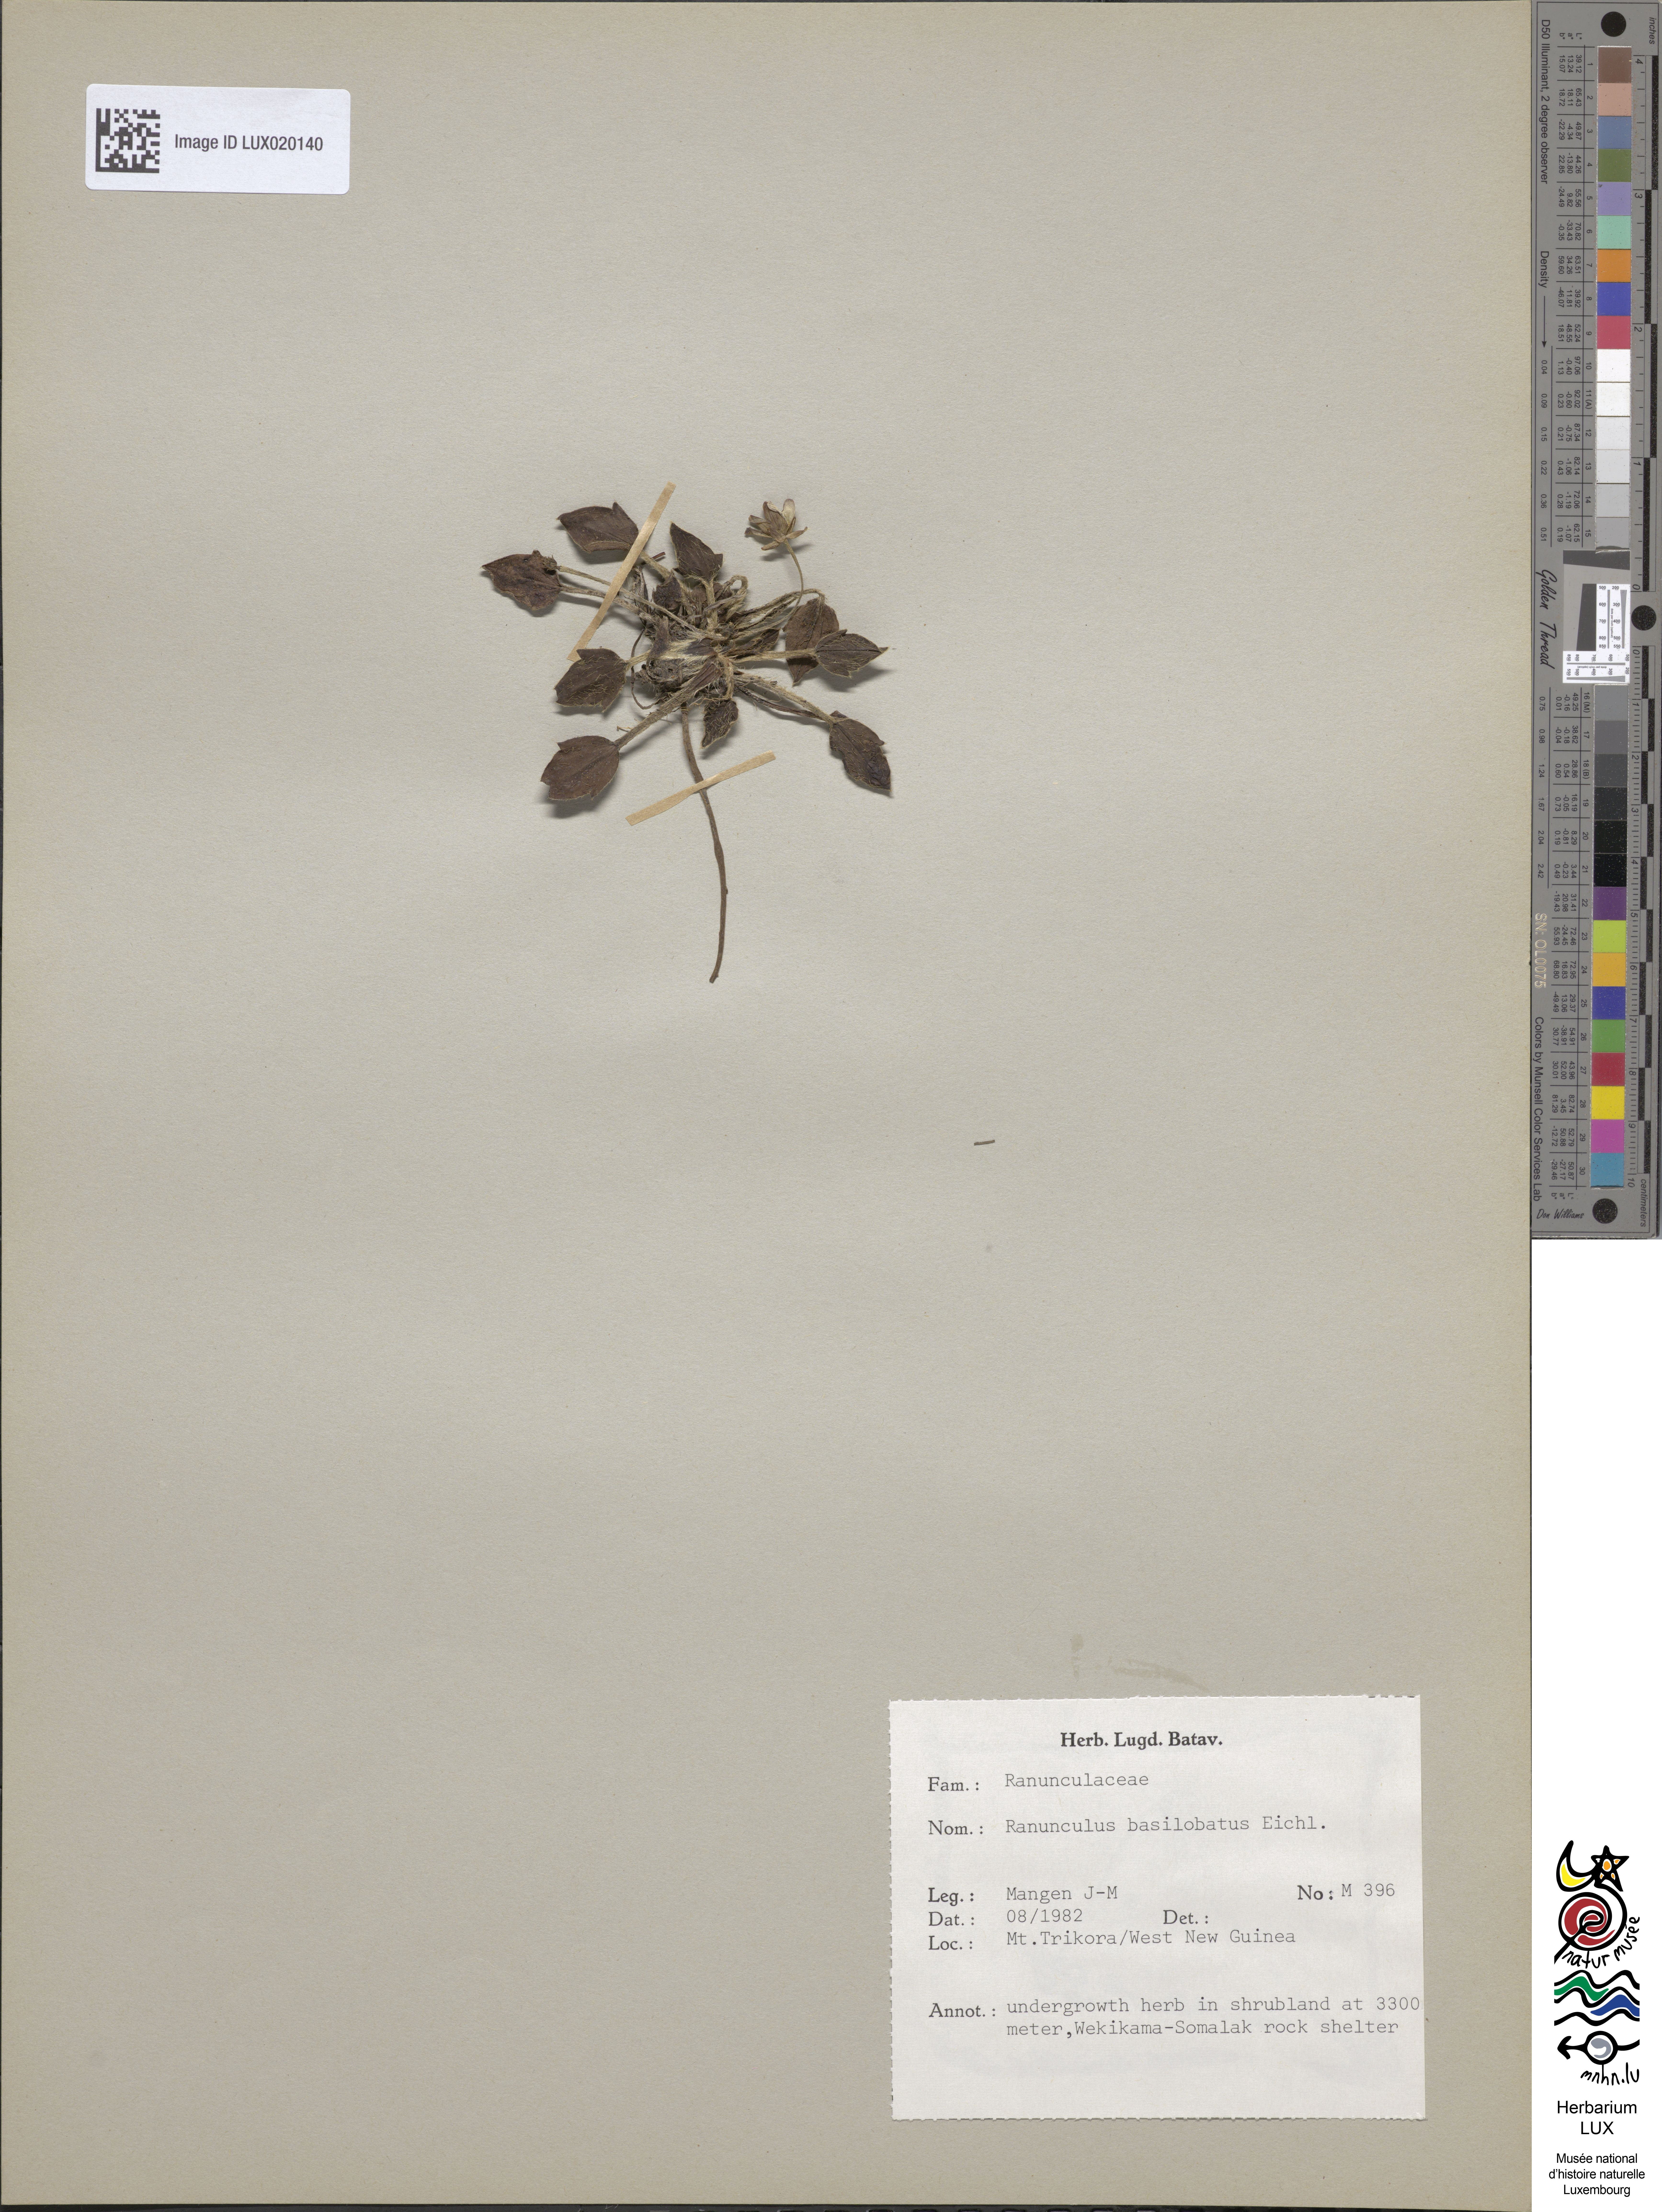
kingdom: Plantae
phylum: Tracheophyta
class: Magnoliopsida
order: Ranunculales
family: Ranunculaceae
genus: Ranunculus
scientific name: Ranunculus basilobatus
